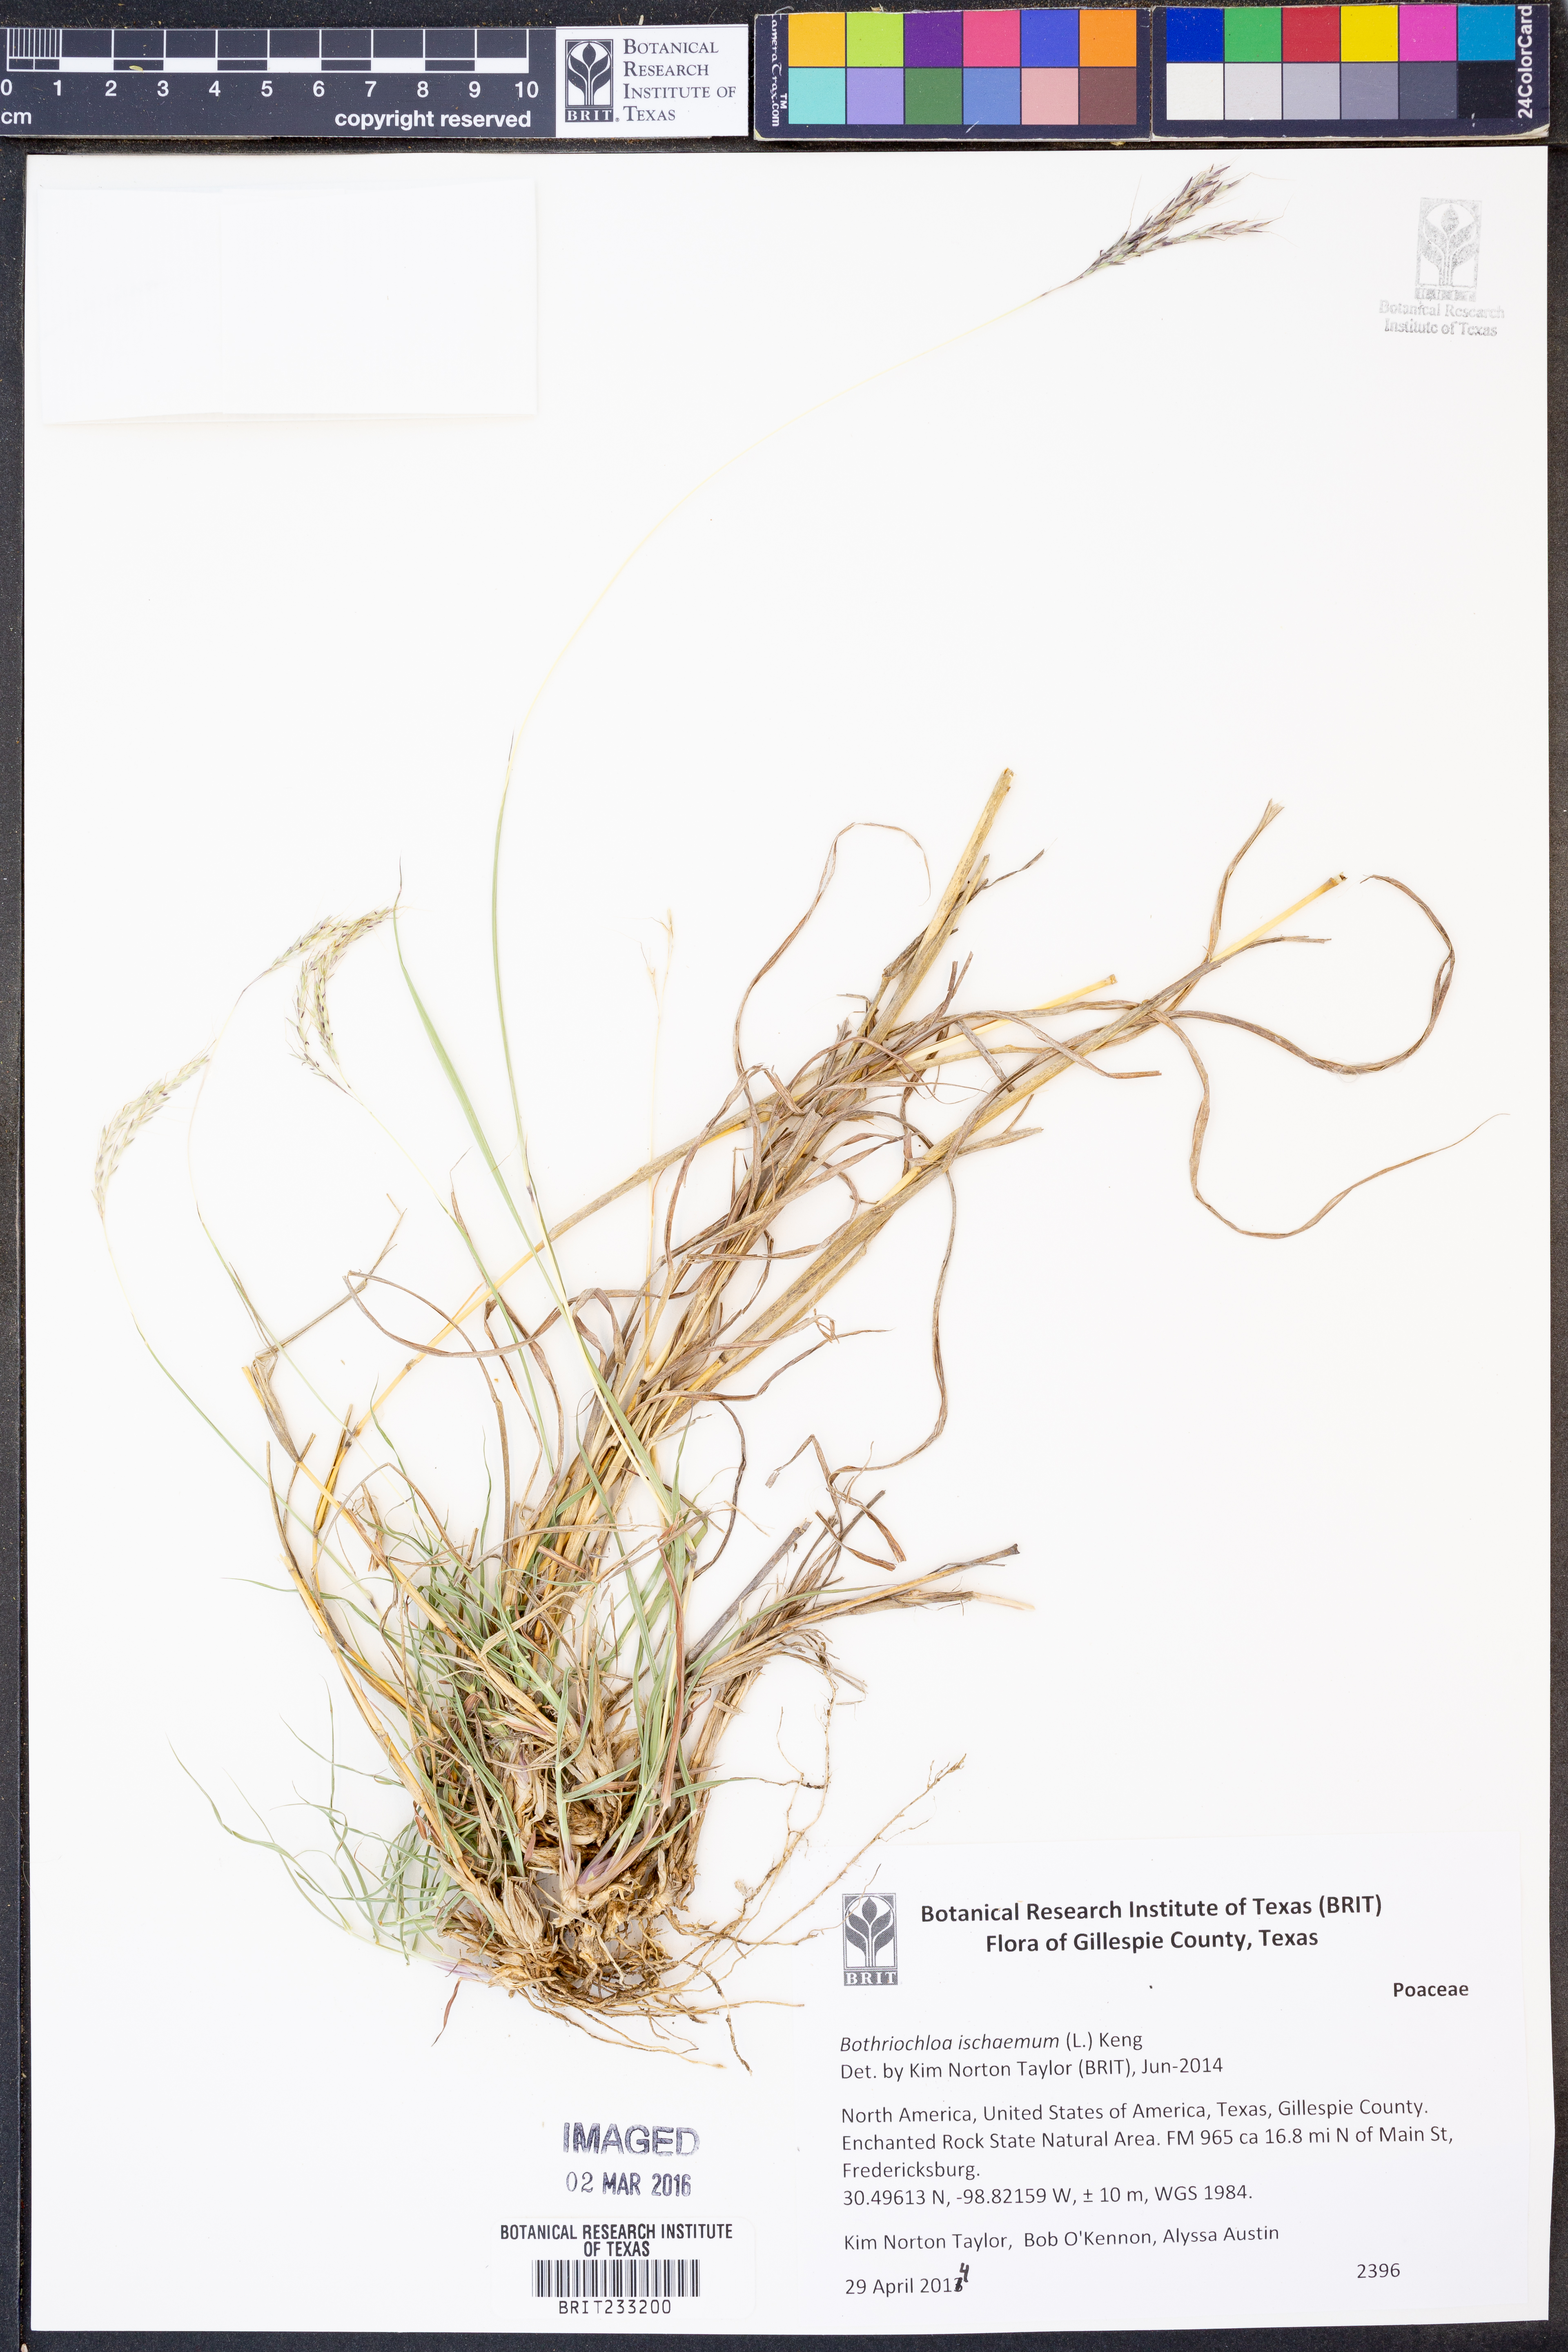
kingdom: Plantae
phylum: Tracheophyta
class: Liliopsida
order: Poales
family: Poaceae
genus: Bothriochloa
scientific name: Bothriochloa ischaemum
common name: Yellow bluestem
